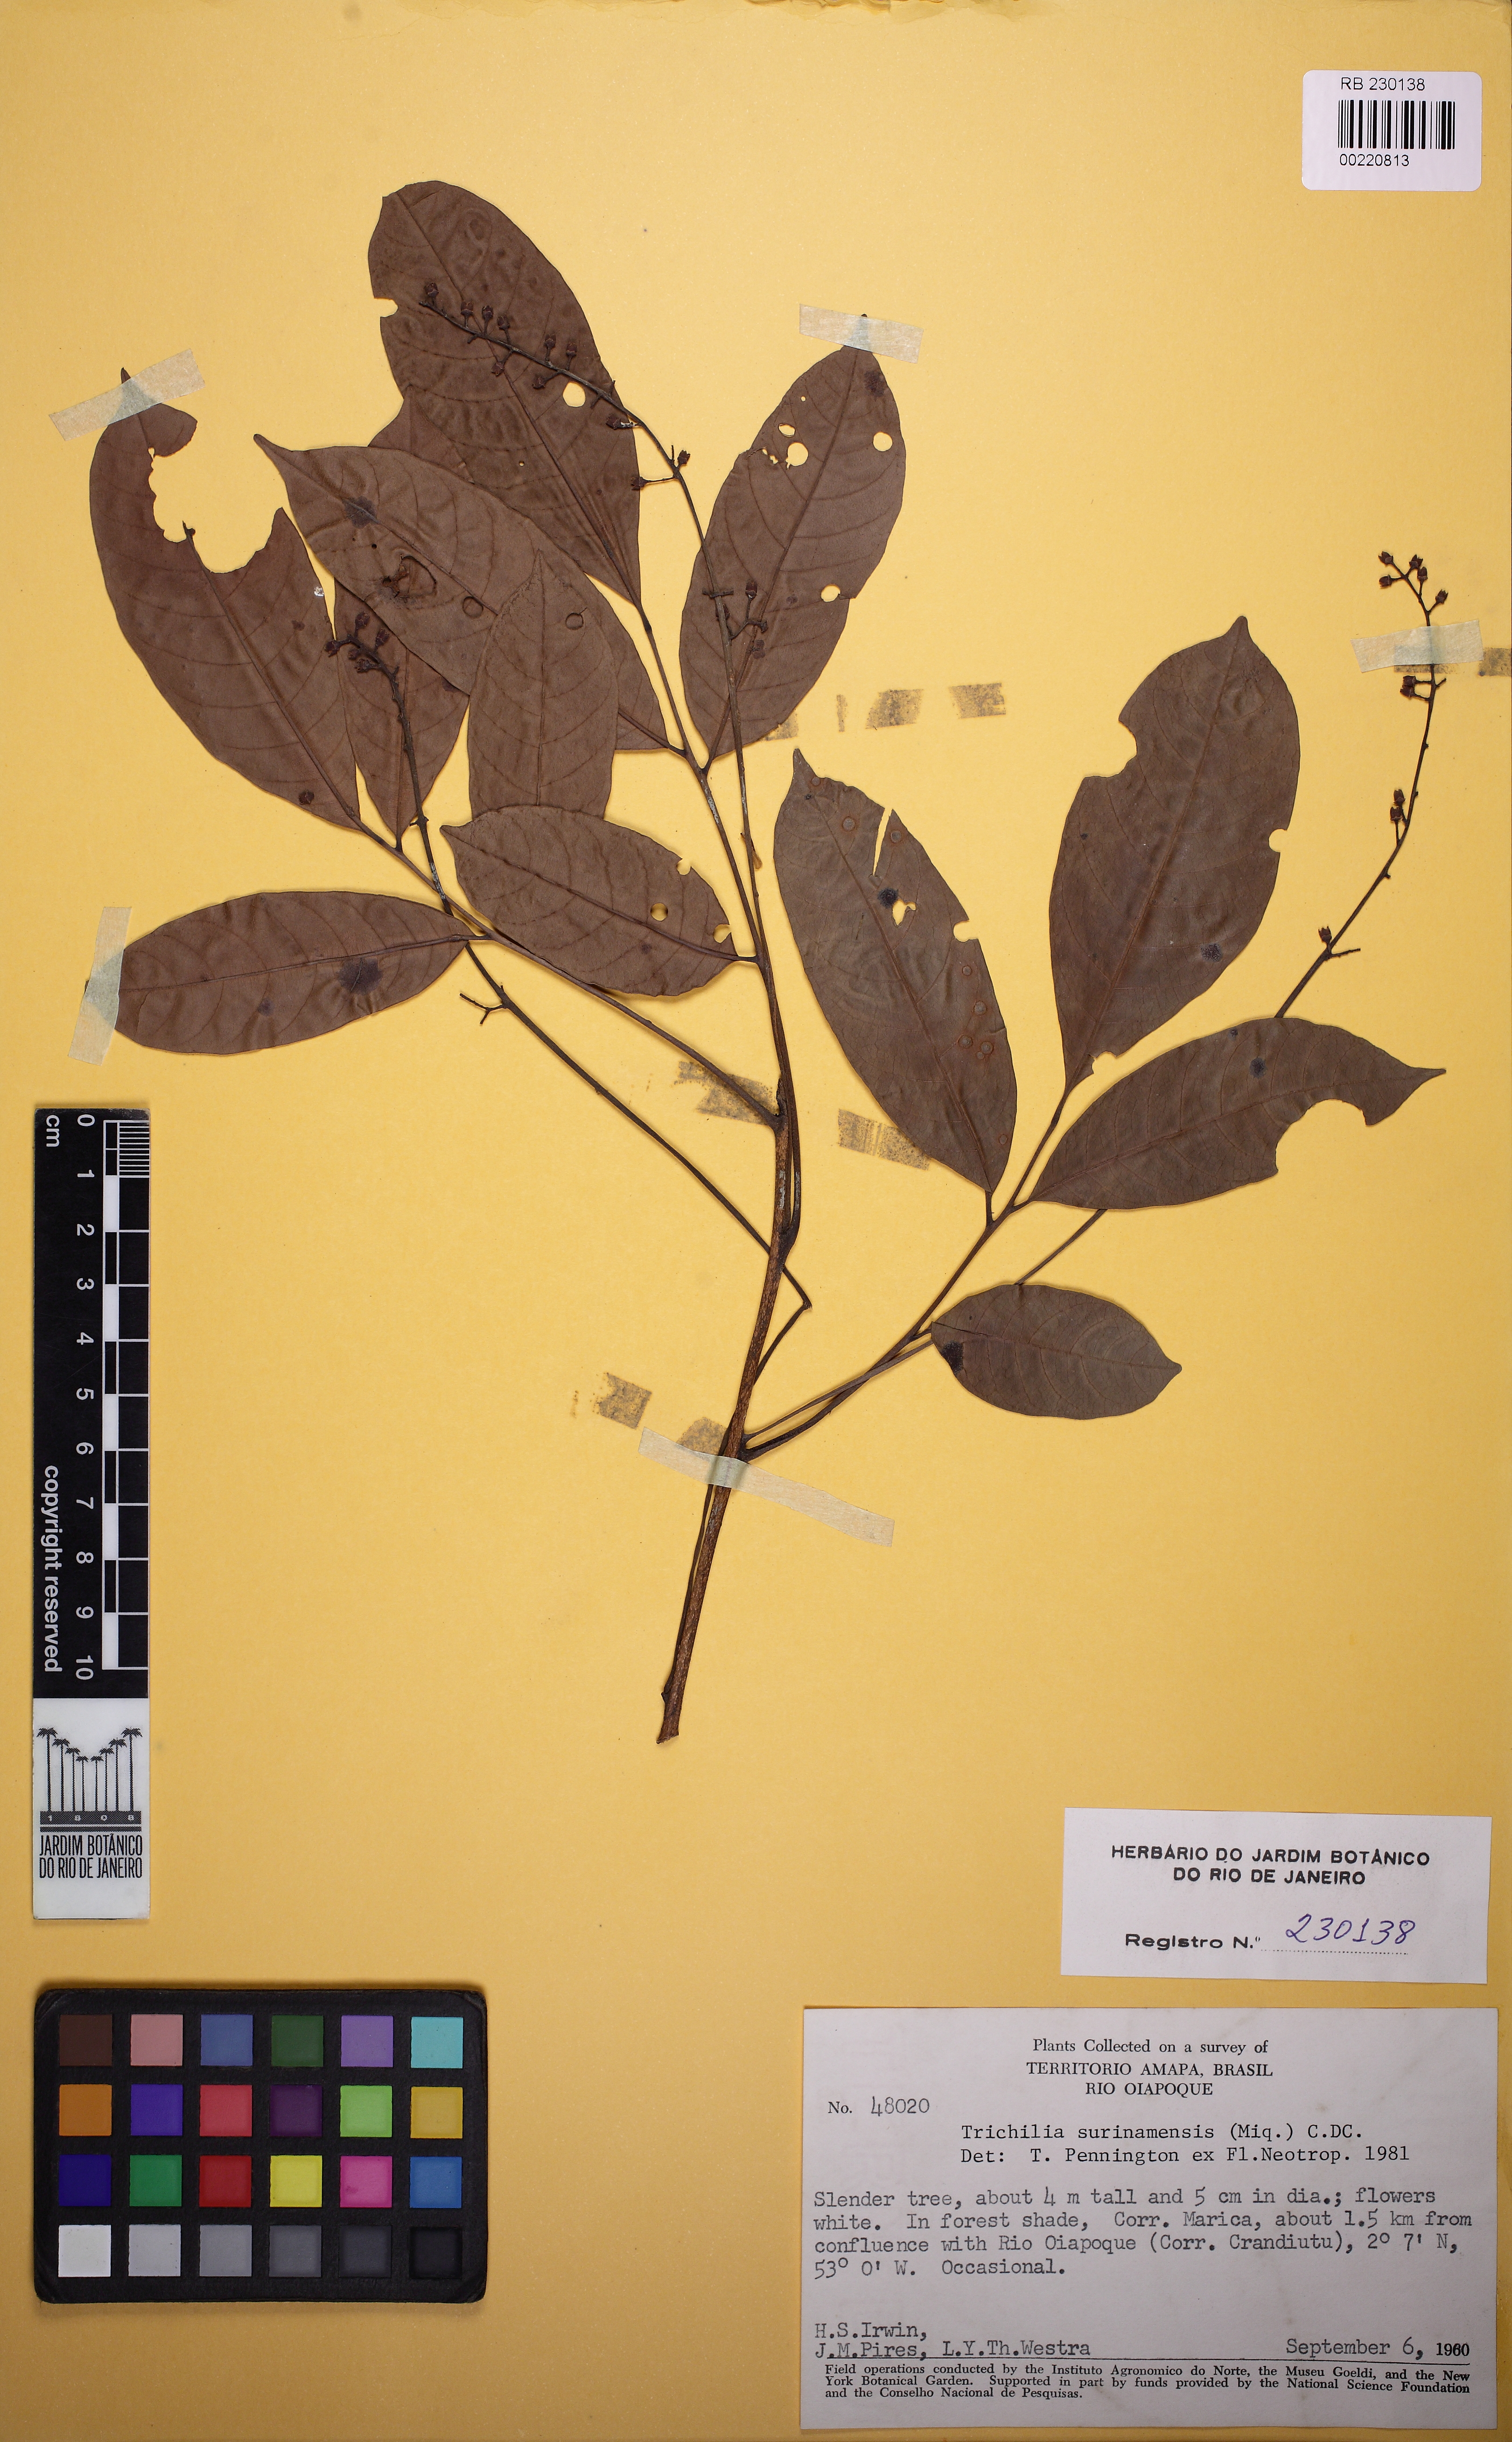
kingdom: Plantae
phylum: Tracheophyta
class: Magnoliopsida
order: Sapindales
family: Meliaceae
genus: Trichilia
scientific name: Trichilia surinamensis
